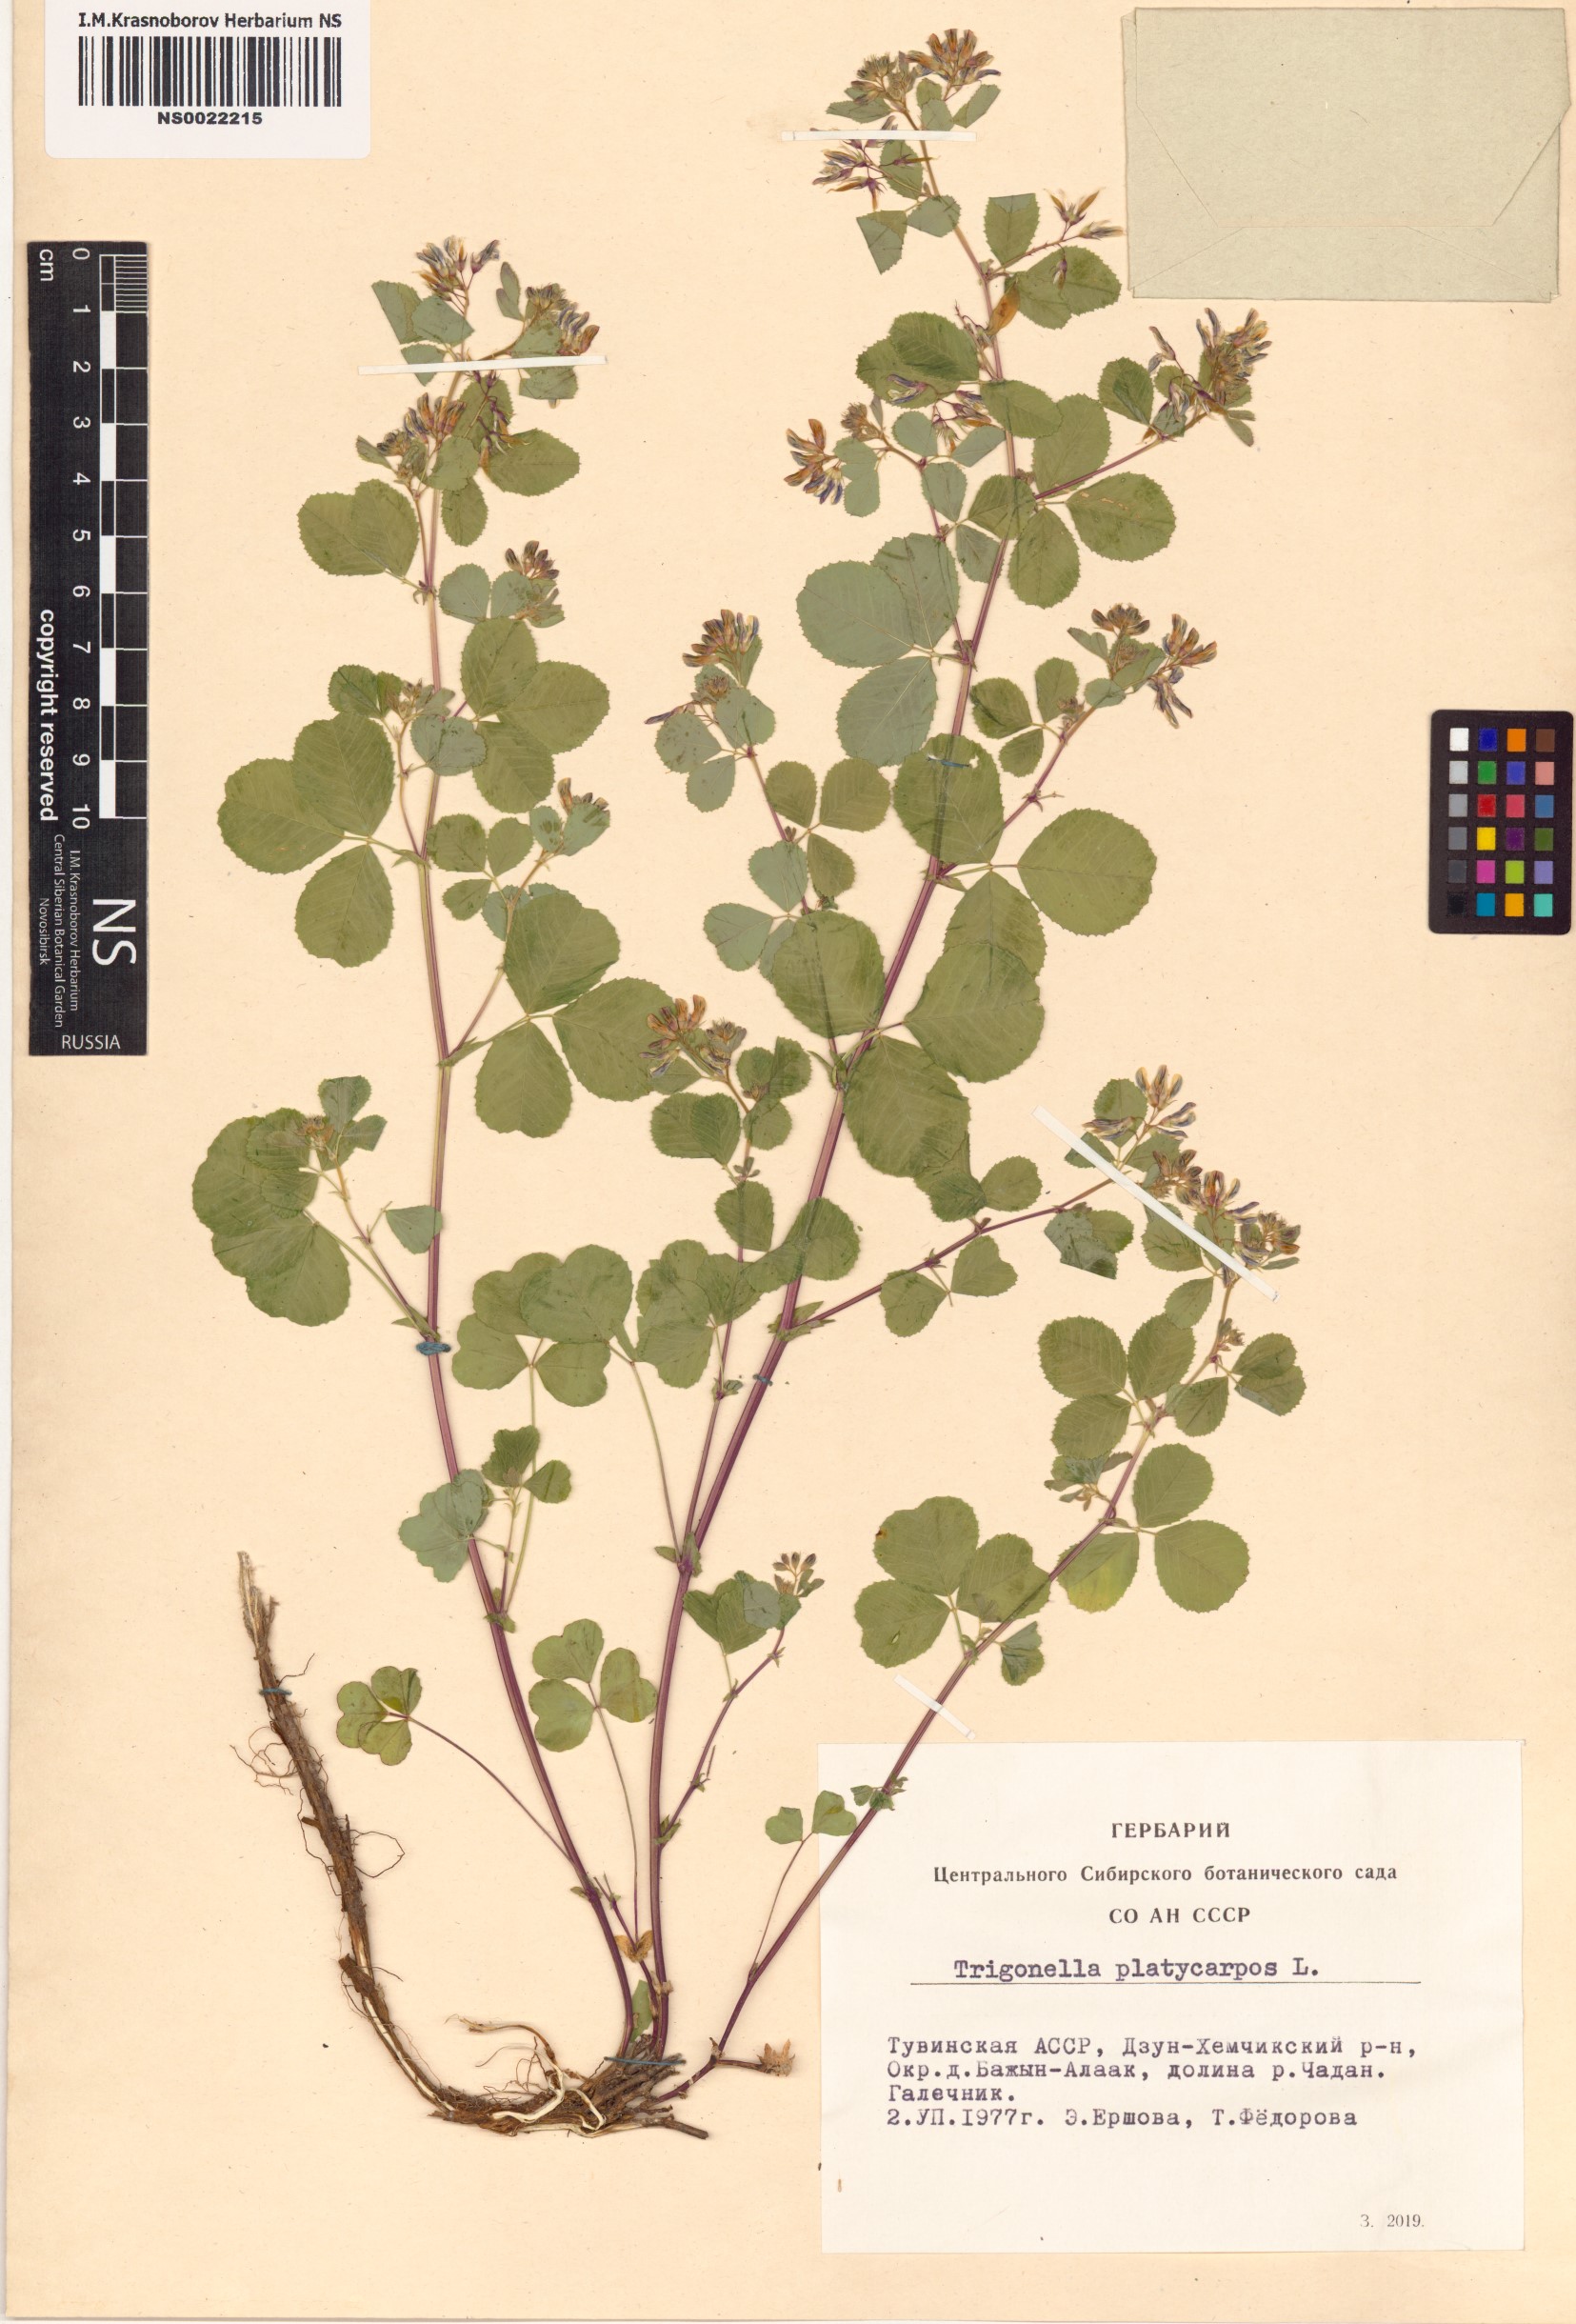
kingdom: Plantae
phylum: Tracheophyta
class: Magnoliopsida
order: Fabales
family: Fabaceae
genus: Medicago
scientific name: Medicago platycarpos
